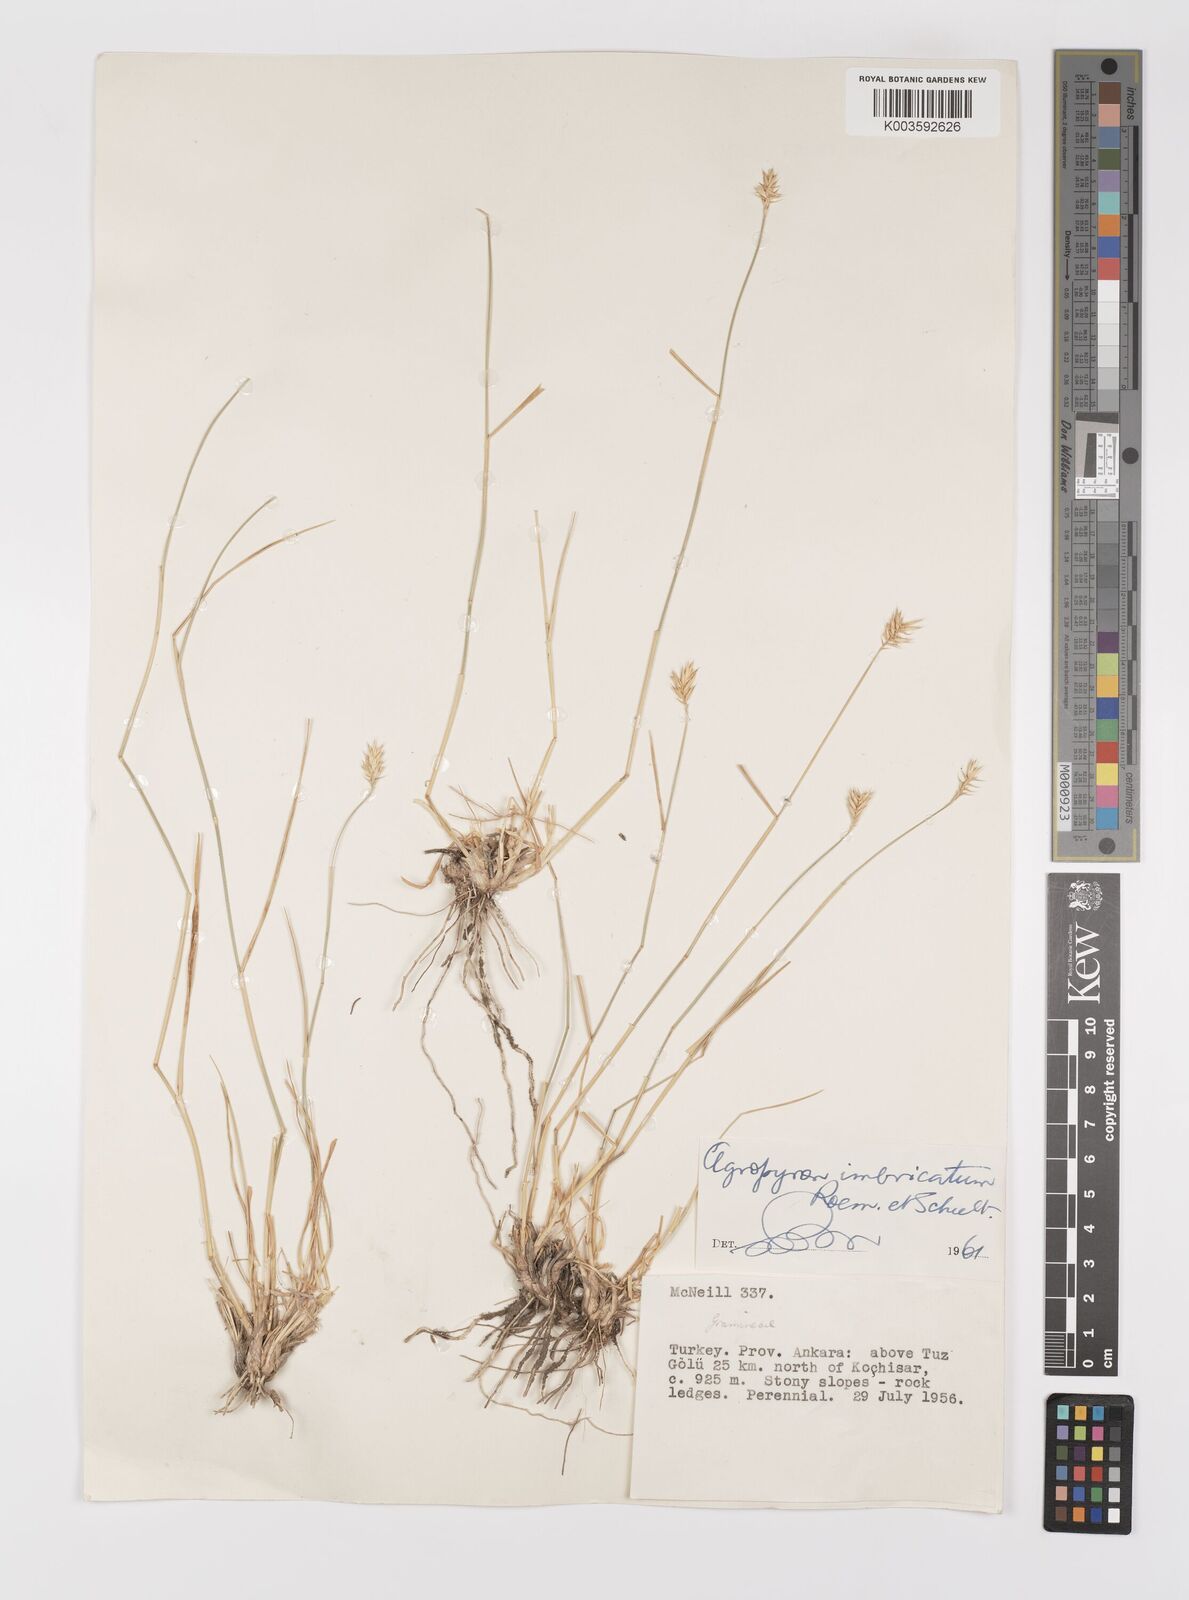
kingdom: Plantae
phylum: Tracheophyta
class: Liliopsida
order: Poales
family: Poaceae
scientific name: Poaceae
